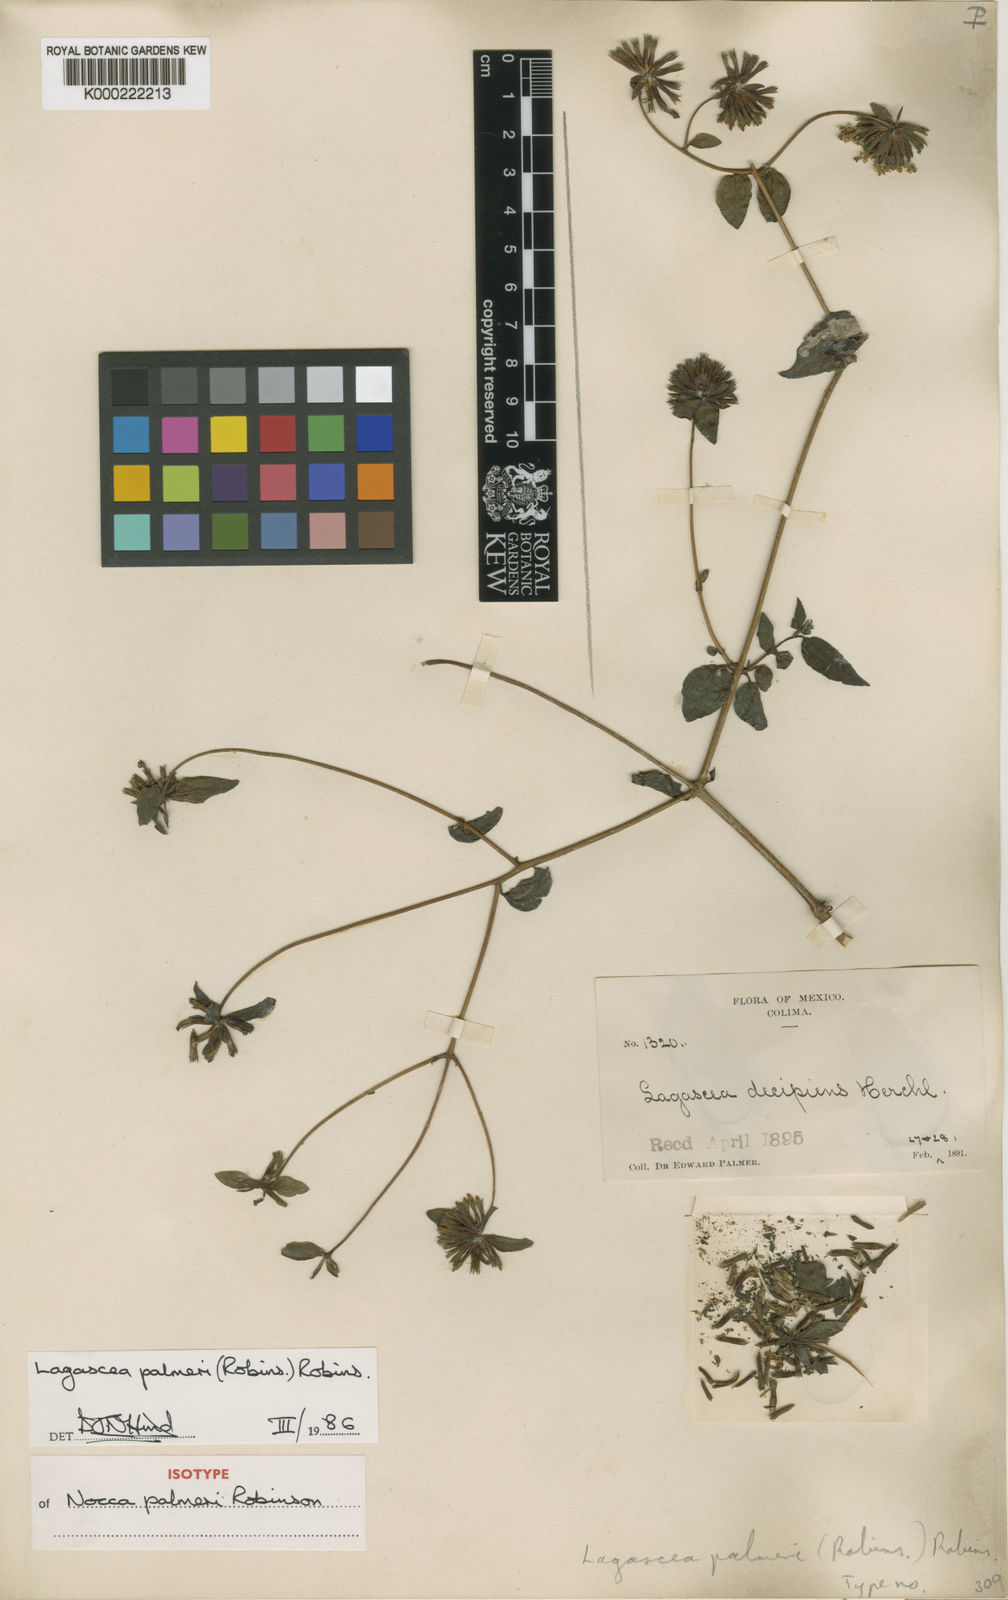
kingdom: Plantae
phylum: Tracheophyta
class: Magnoliopsida
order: Asterales
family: Asteraceae
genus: Lagascea
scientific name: Lagascea palmeri
